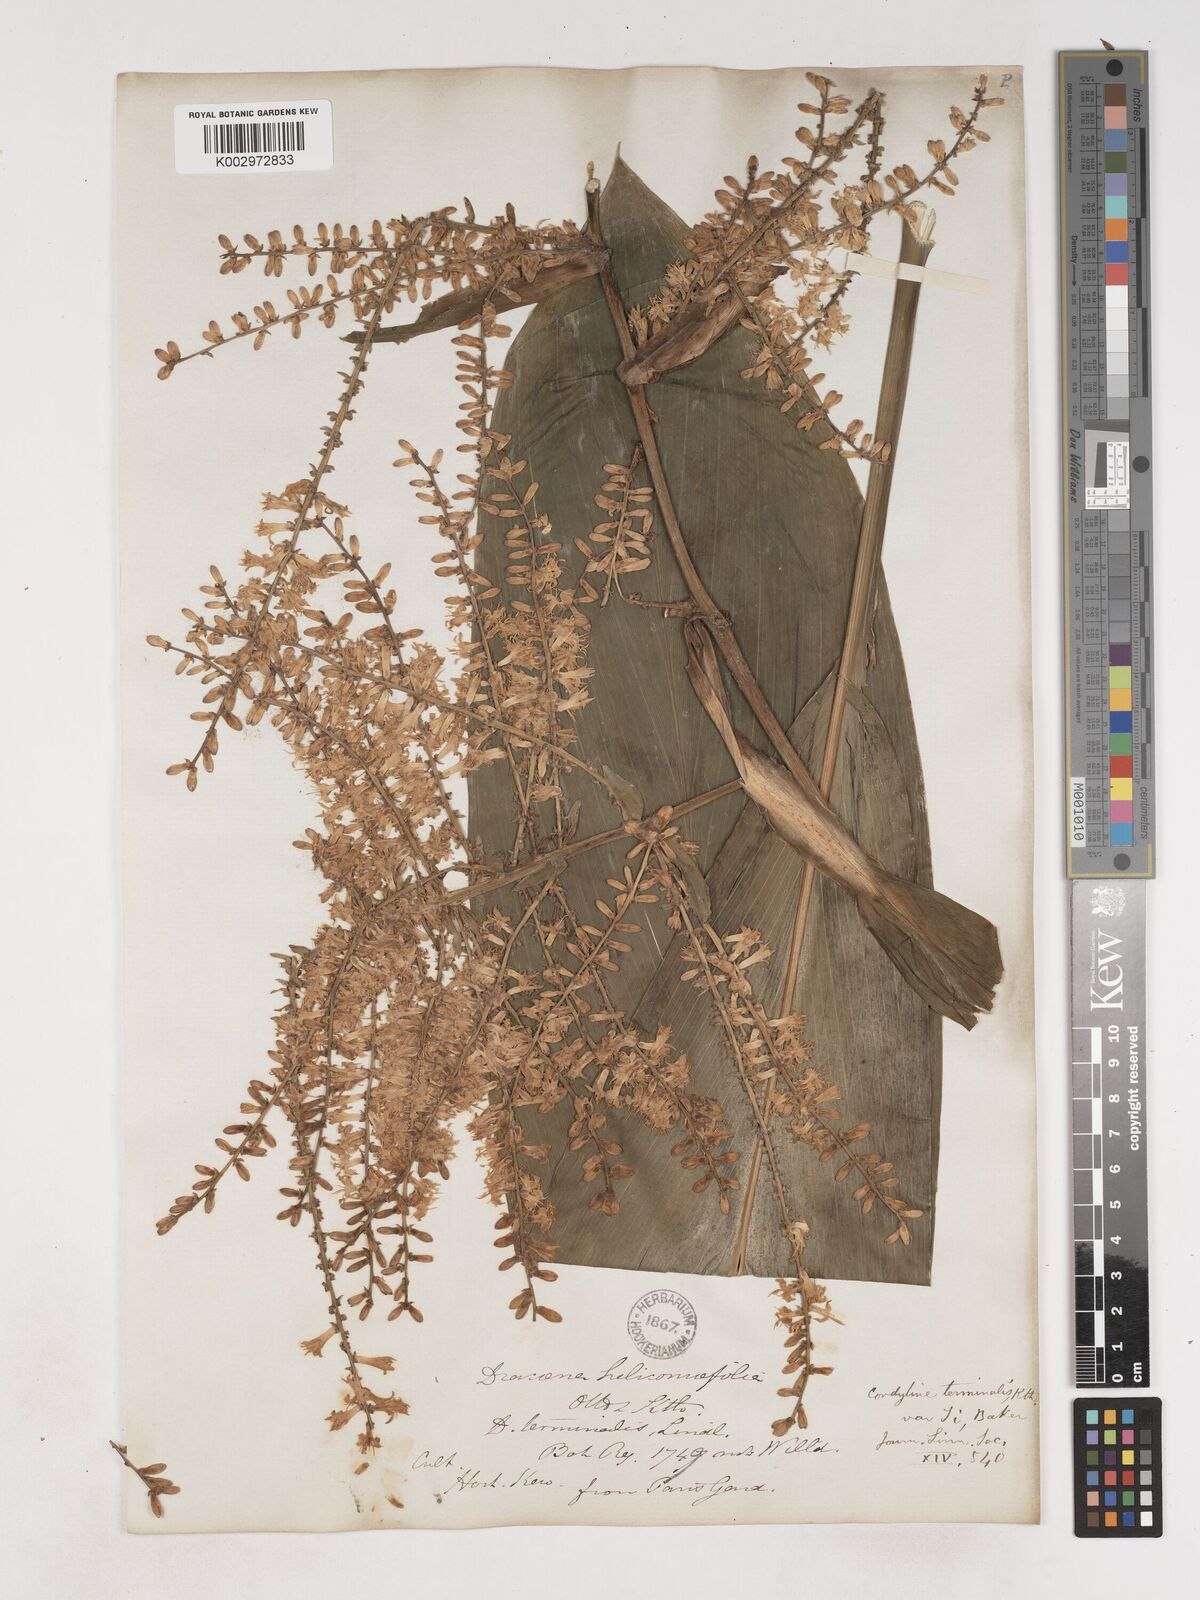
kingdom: Plantae
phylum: Tracheophyta
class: Liliopsida
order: Asparagales
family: Asparagaceae
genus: Cordyline
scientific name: Cordyline fruticosa
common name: Good-luck-plant
